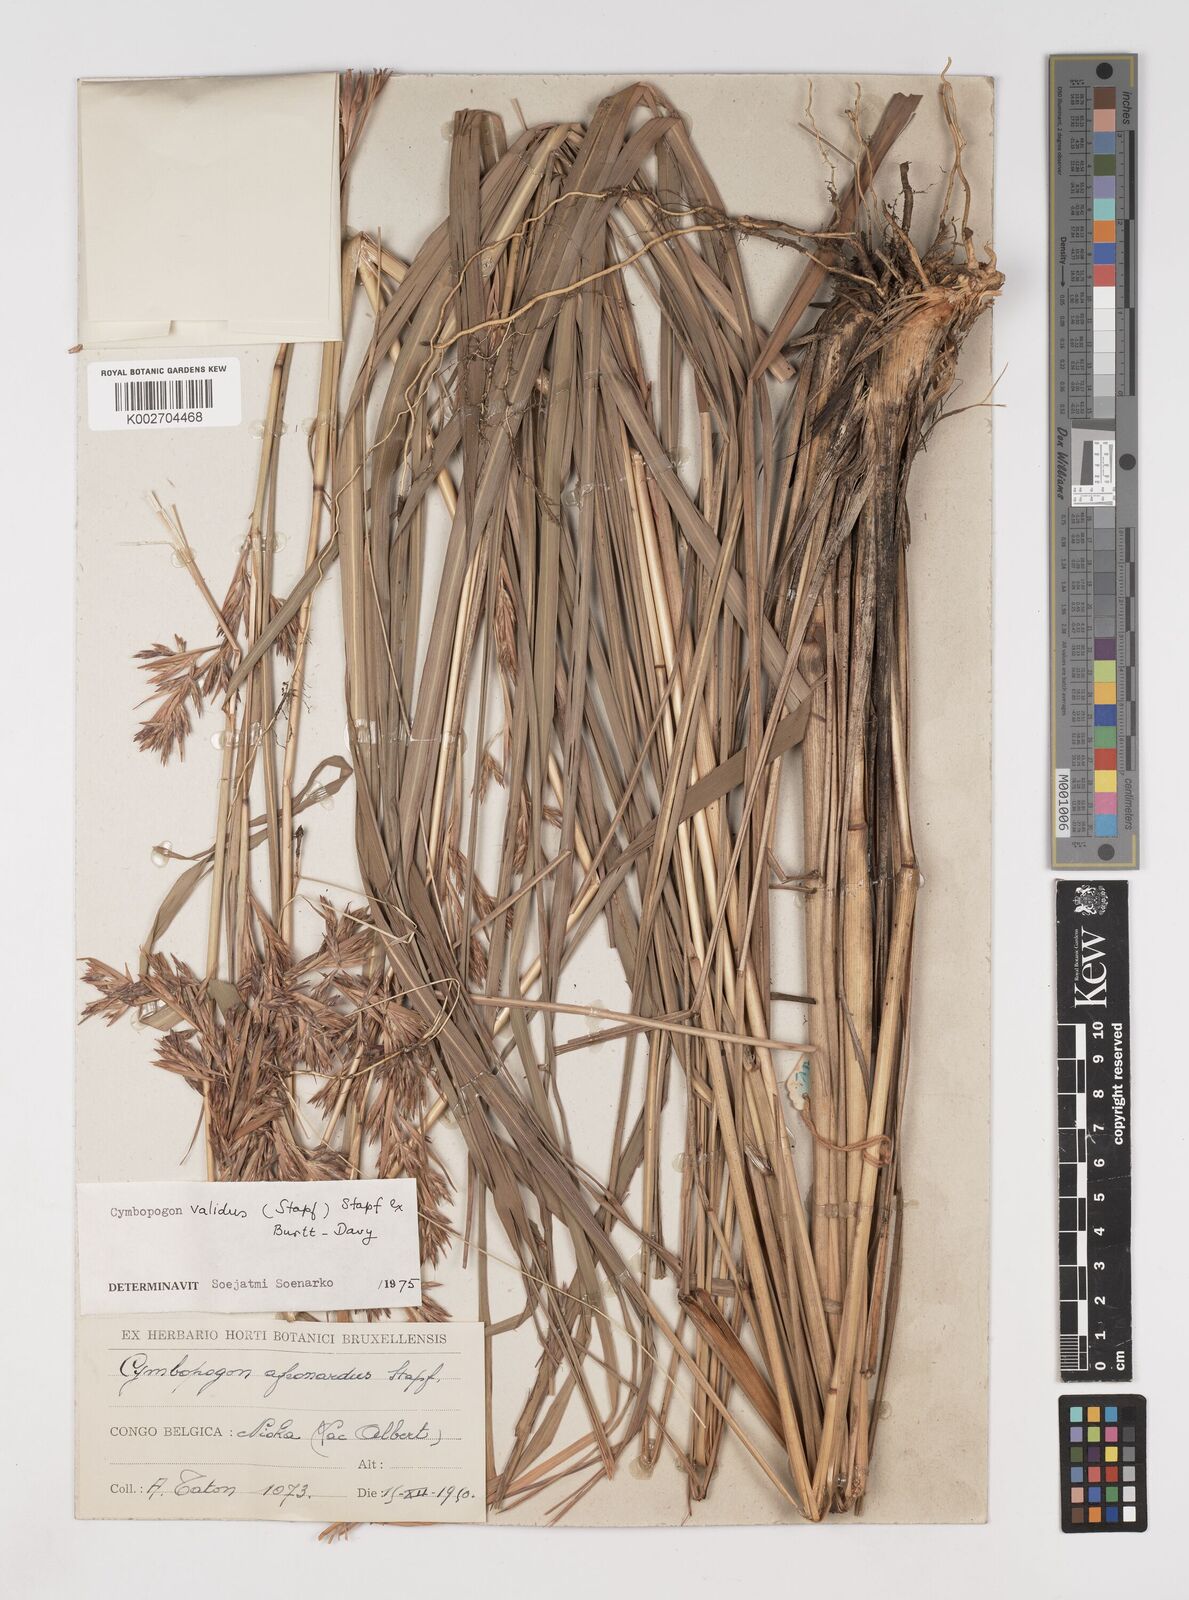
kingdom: Plantae
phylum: Tracheophyta
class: Liliopsida
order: Poales
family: Poaceae
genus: Cymbopogon
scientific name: Cymbopogon nardus
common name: Giant turpentine grass
